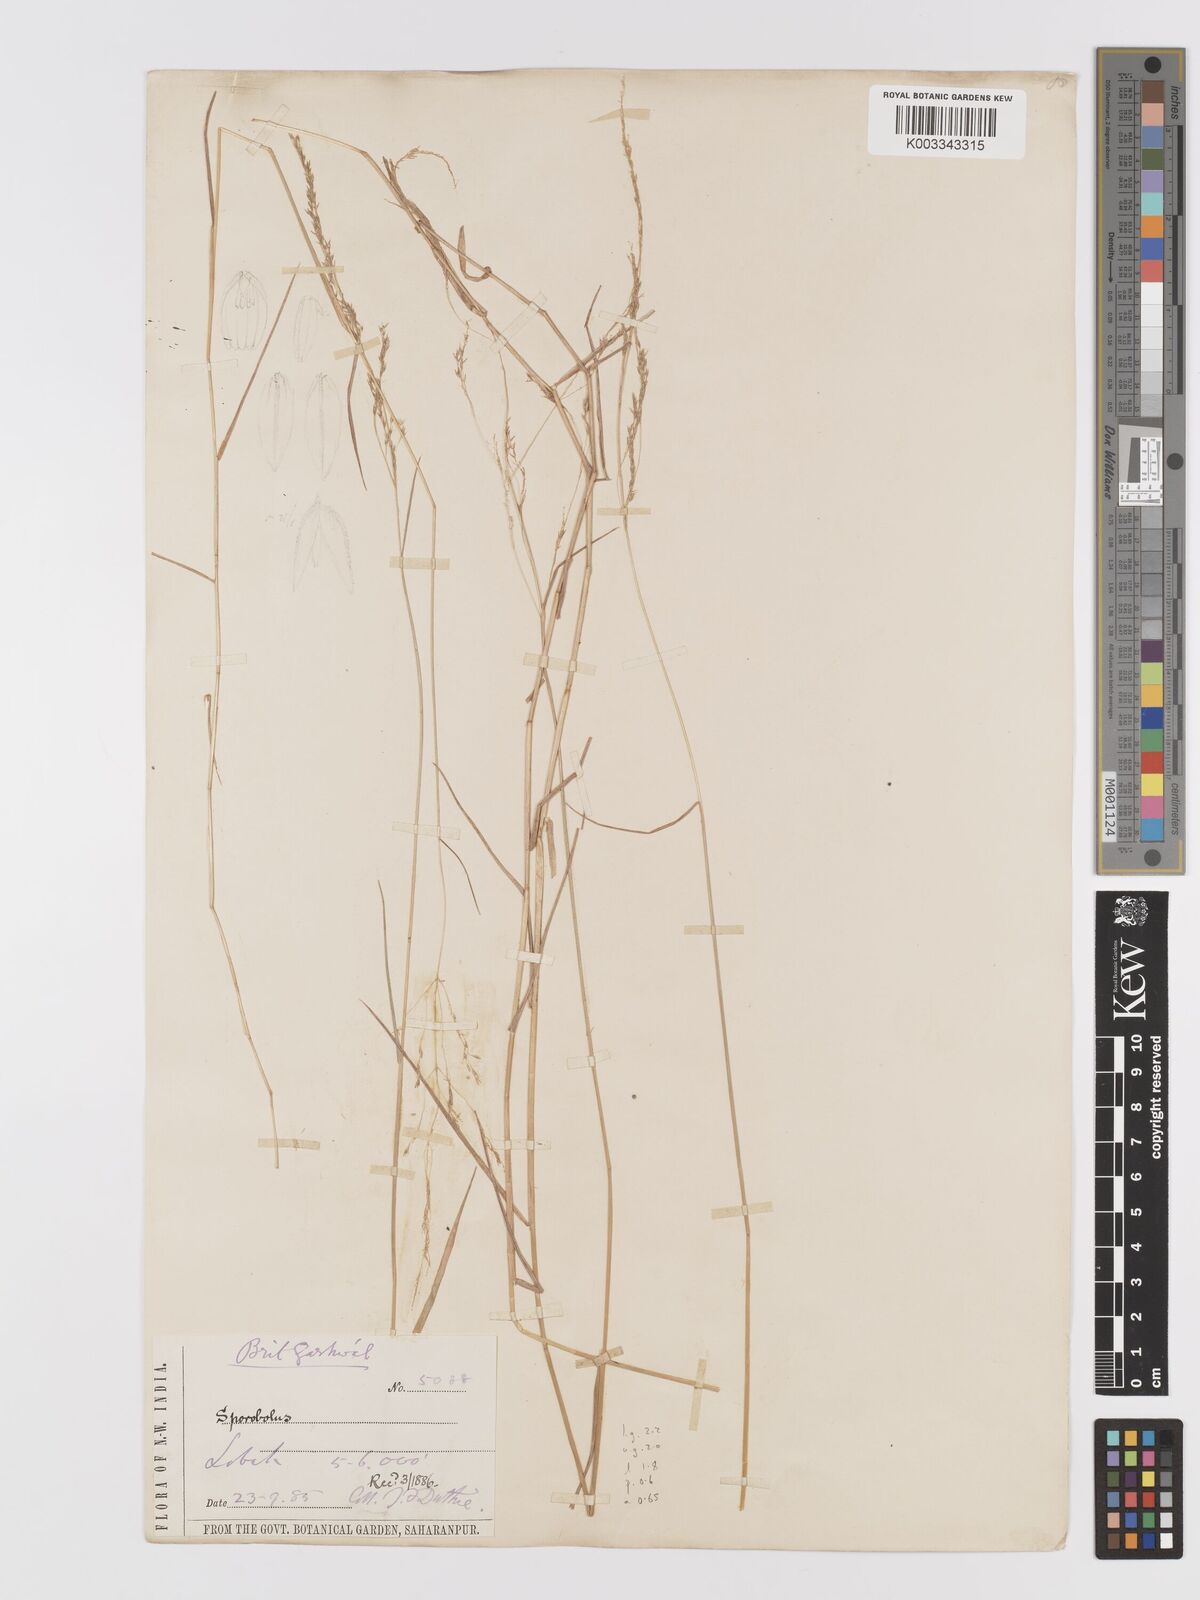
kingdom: Plantae
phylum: Tracheophyta
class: Liliopsida
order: Poales
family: Poaceae
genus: Agrostis
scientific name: Agrostis micrantha
